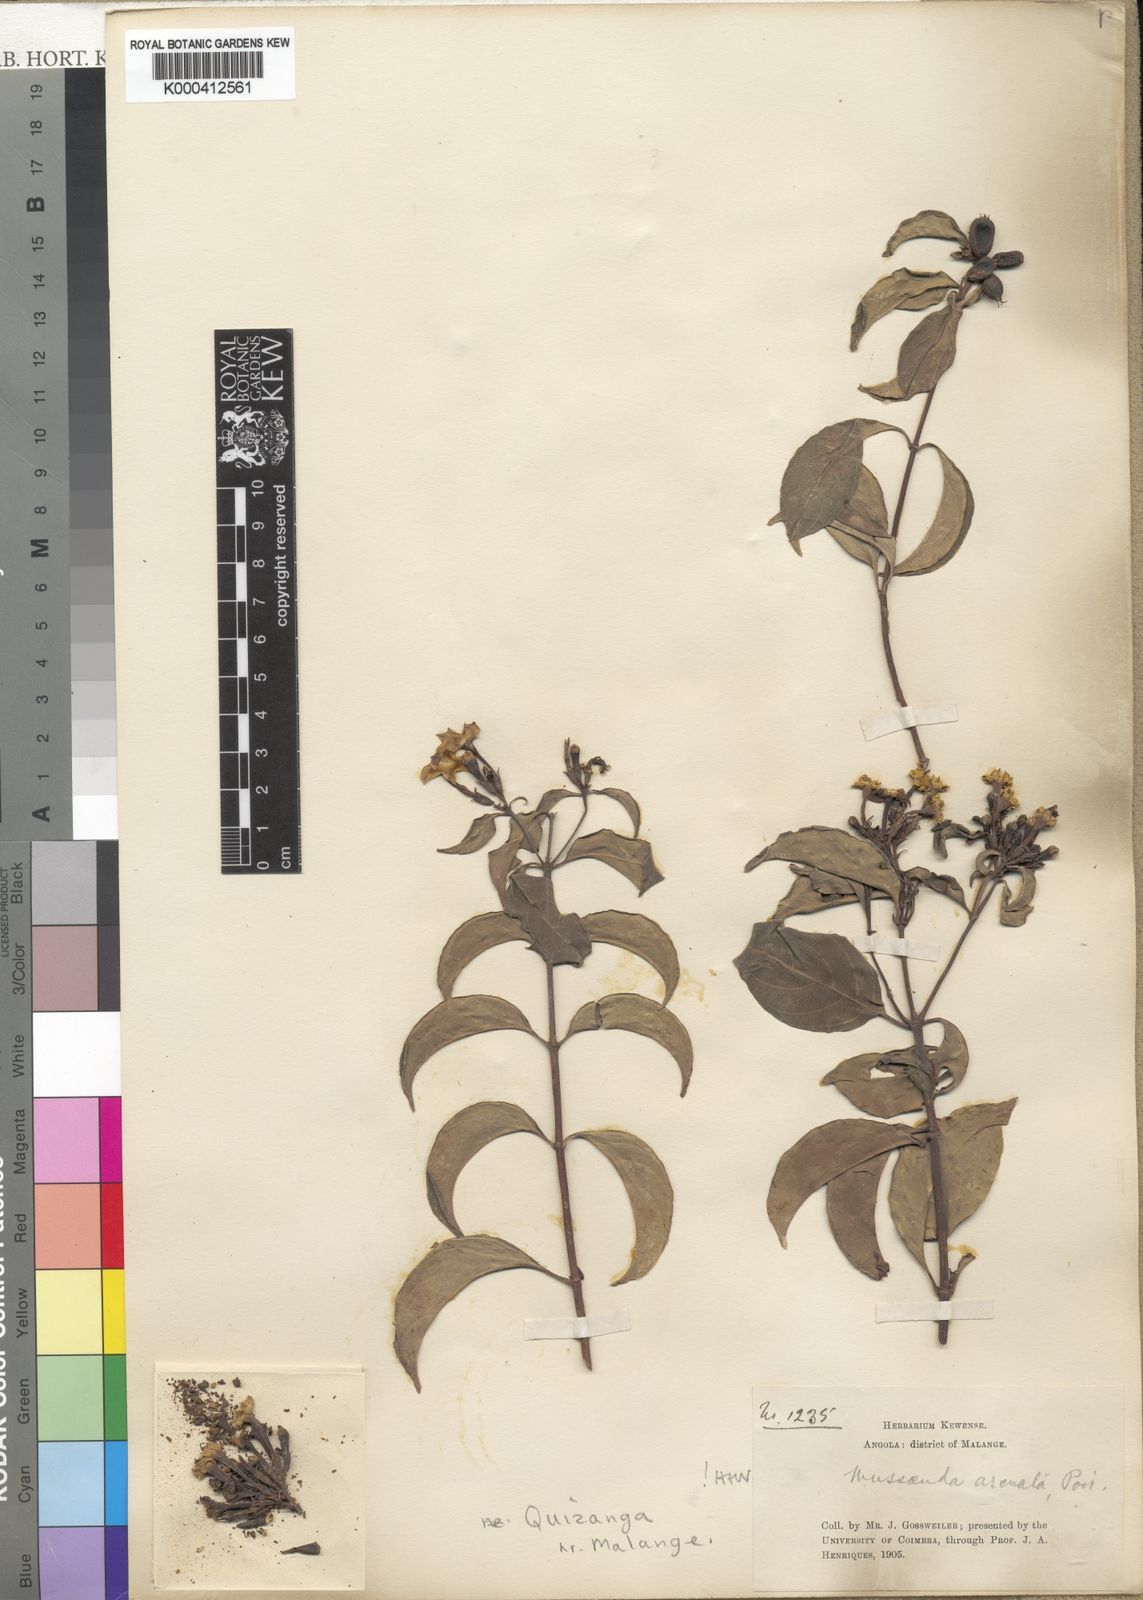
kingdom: Plantae
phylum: Tracheophyta
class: Magnoliopsida
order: Gentianales
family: Rubiaceae
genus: Mussaenda
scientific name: Mussaenda arcuata
